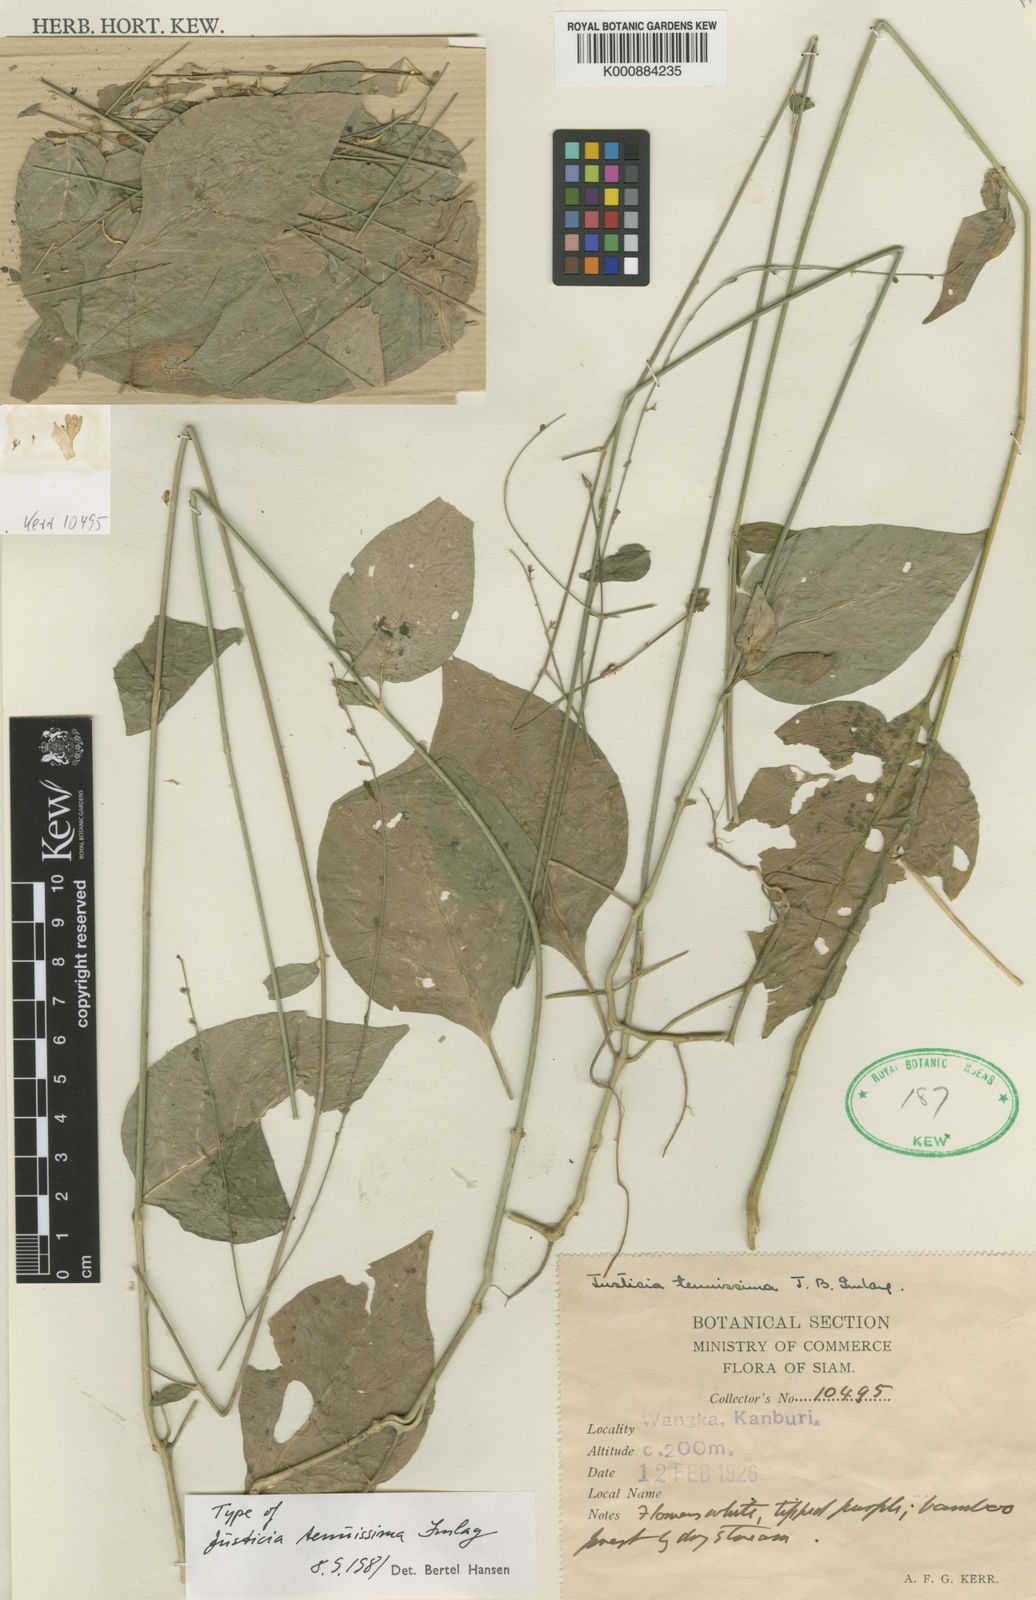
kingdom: Plantae
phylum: Tracheophyta
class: Magnoliopsida
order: Lamiales
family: Acanthaceae
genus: Justicia
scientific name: Justicia tenuissima
